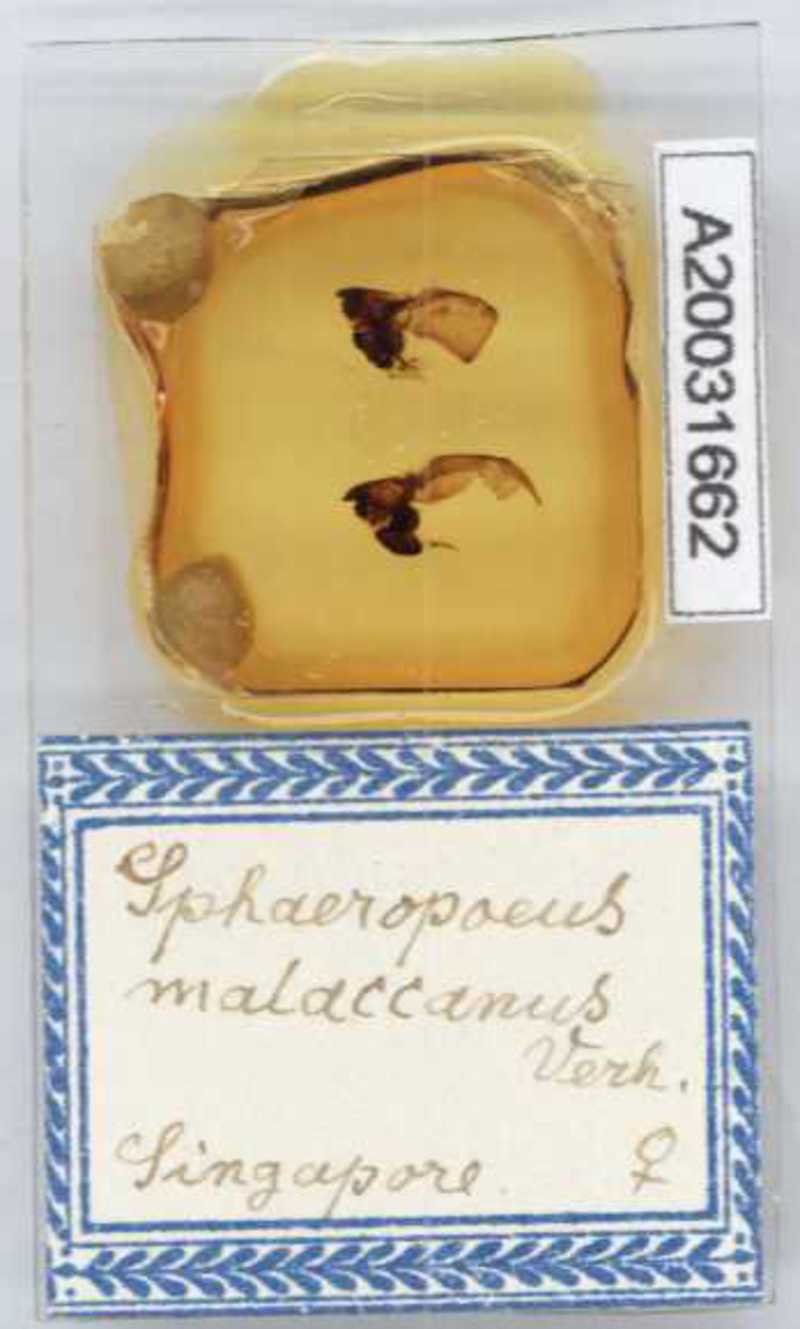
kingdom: Animalia
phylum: Arthropoda
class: Diplopoda
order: Sphaerotheriida
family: Zephroniidae
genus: Sphaeropoeus
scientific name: Sphaeropoeus malaccanus
